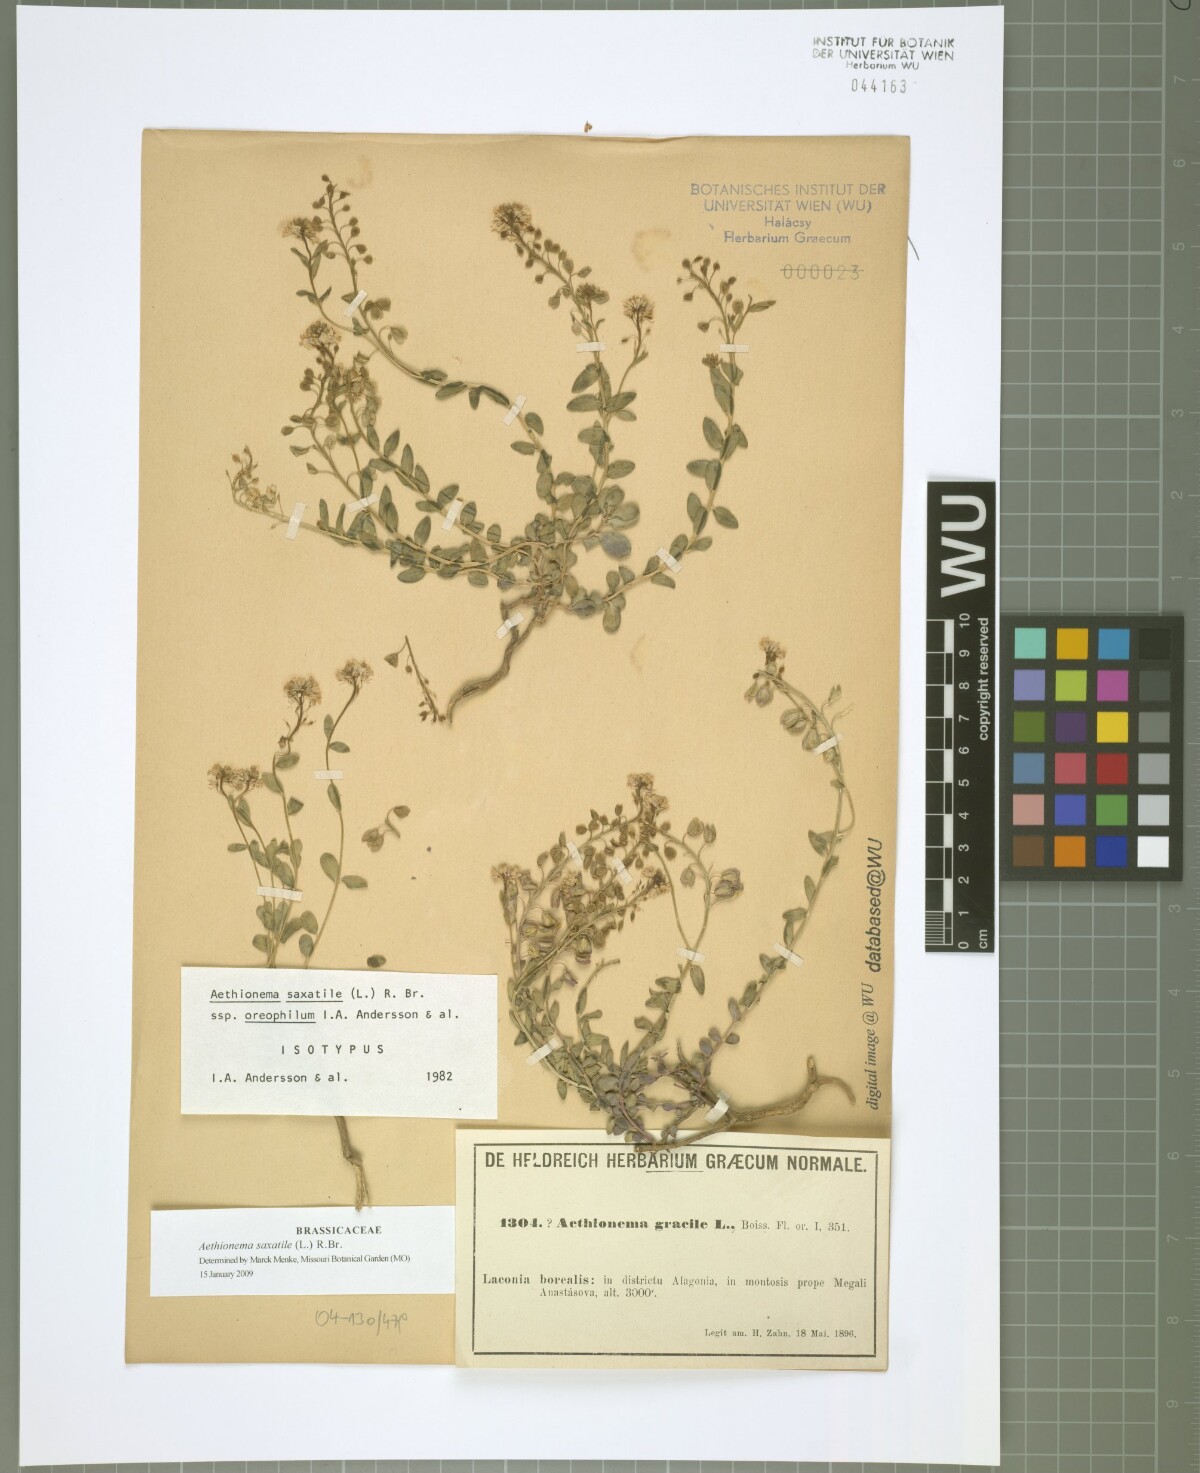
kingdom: Plantae
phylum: Tracheophyta
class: Magnoliopsida
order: Brassicales
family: Brassicaceae
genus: Aethionema
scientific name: Aethionema saxatile
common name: Burnt candytuft
